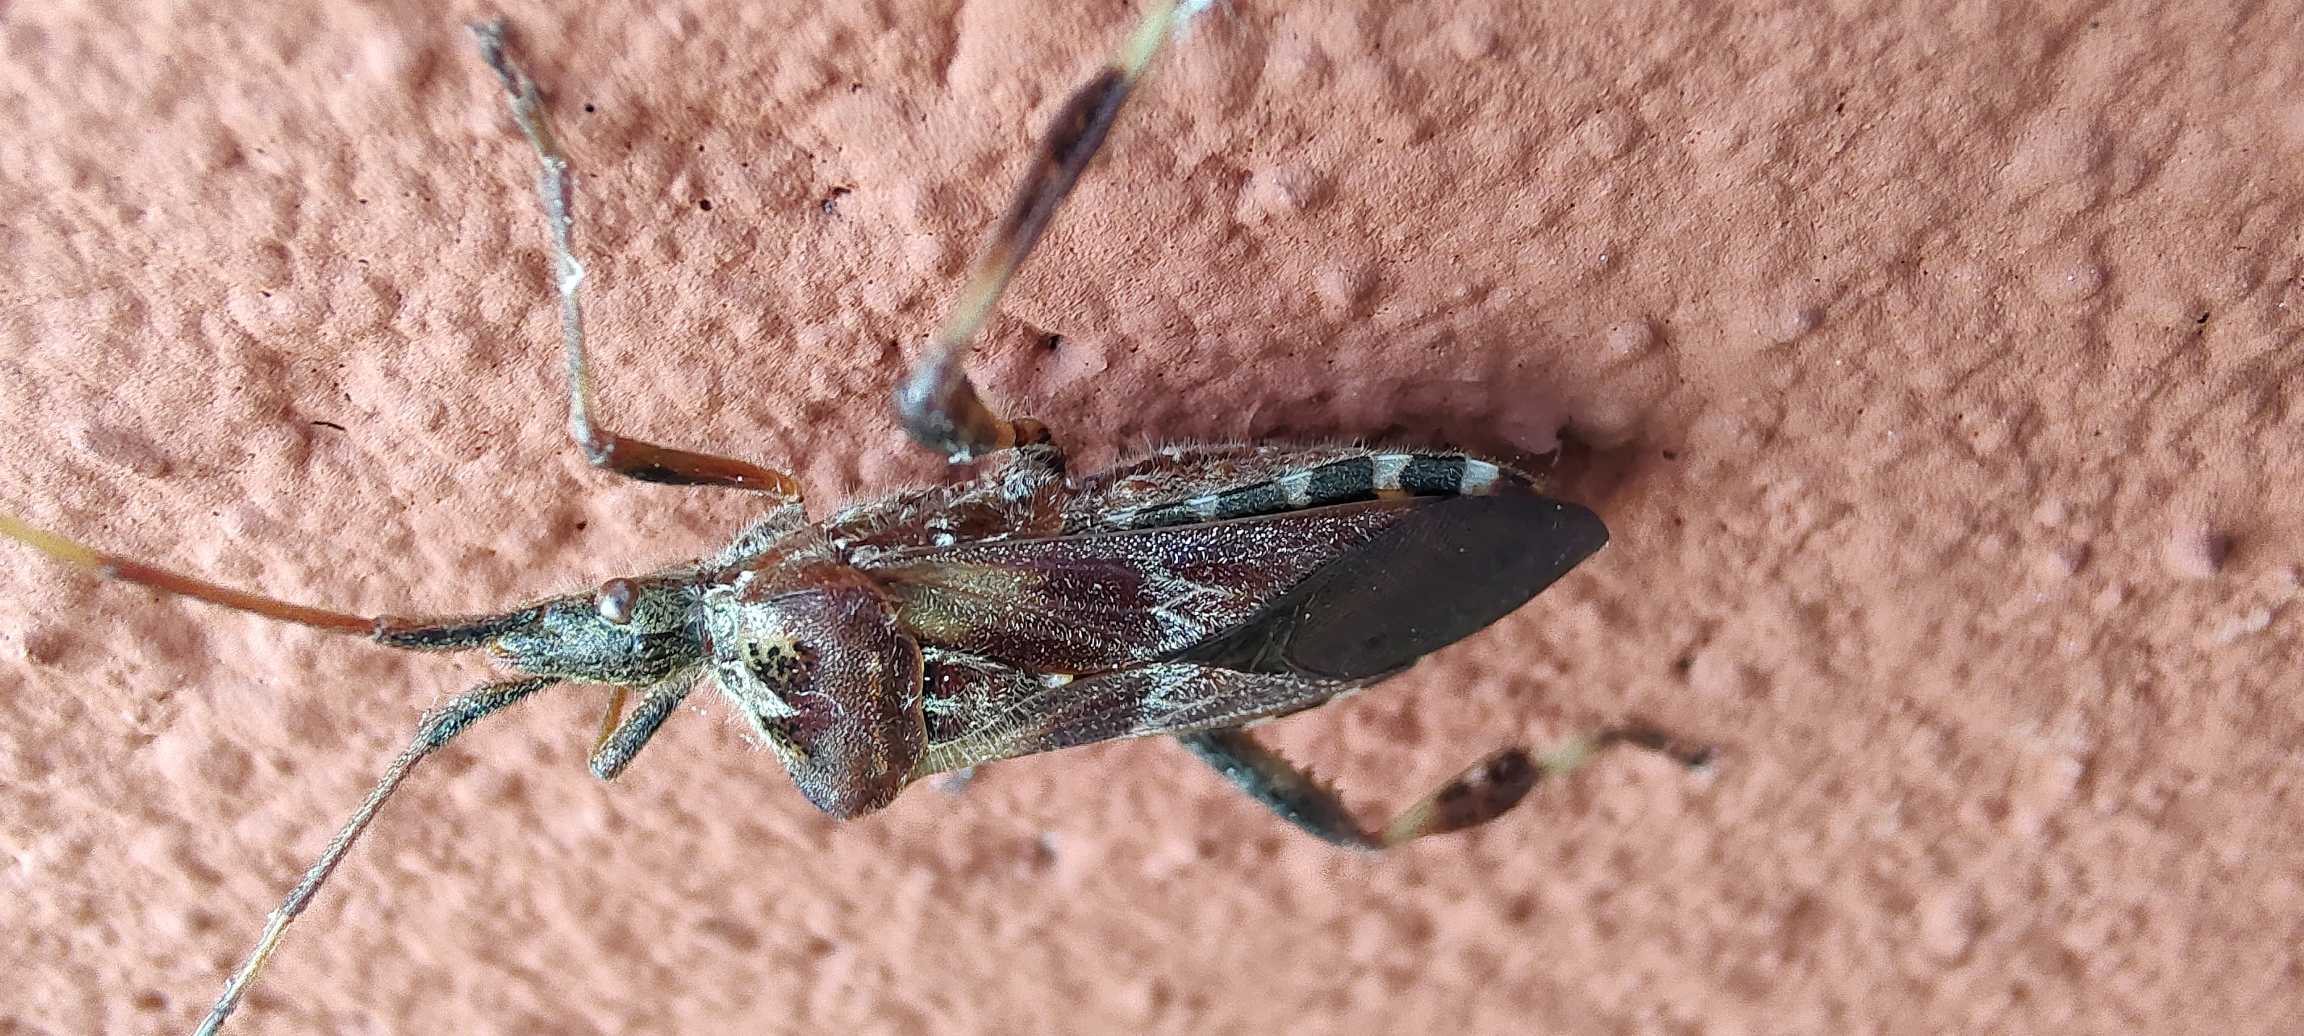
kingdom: Animalia
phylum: Arthropoda
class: Insecta
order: Hemiptera
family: Coreidae
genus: Leptoglossus
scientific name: Leptoglossus occidentalis
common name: Amerikansk fyrretæge
